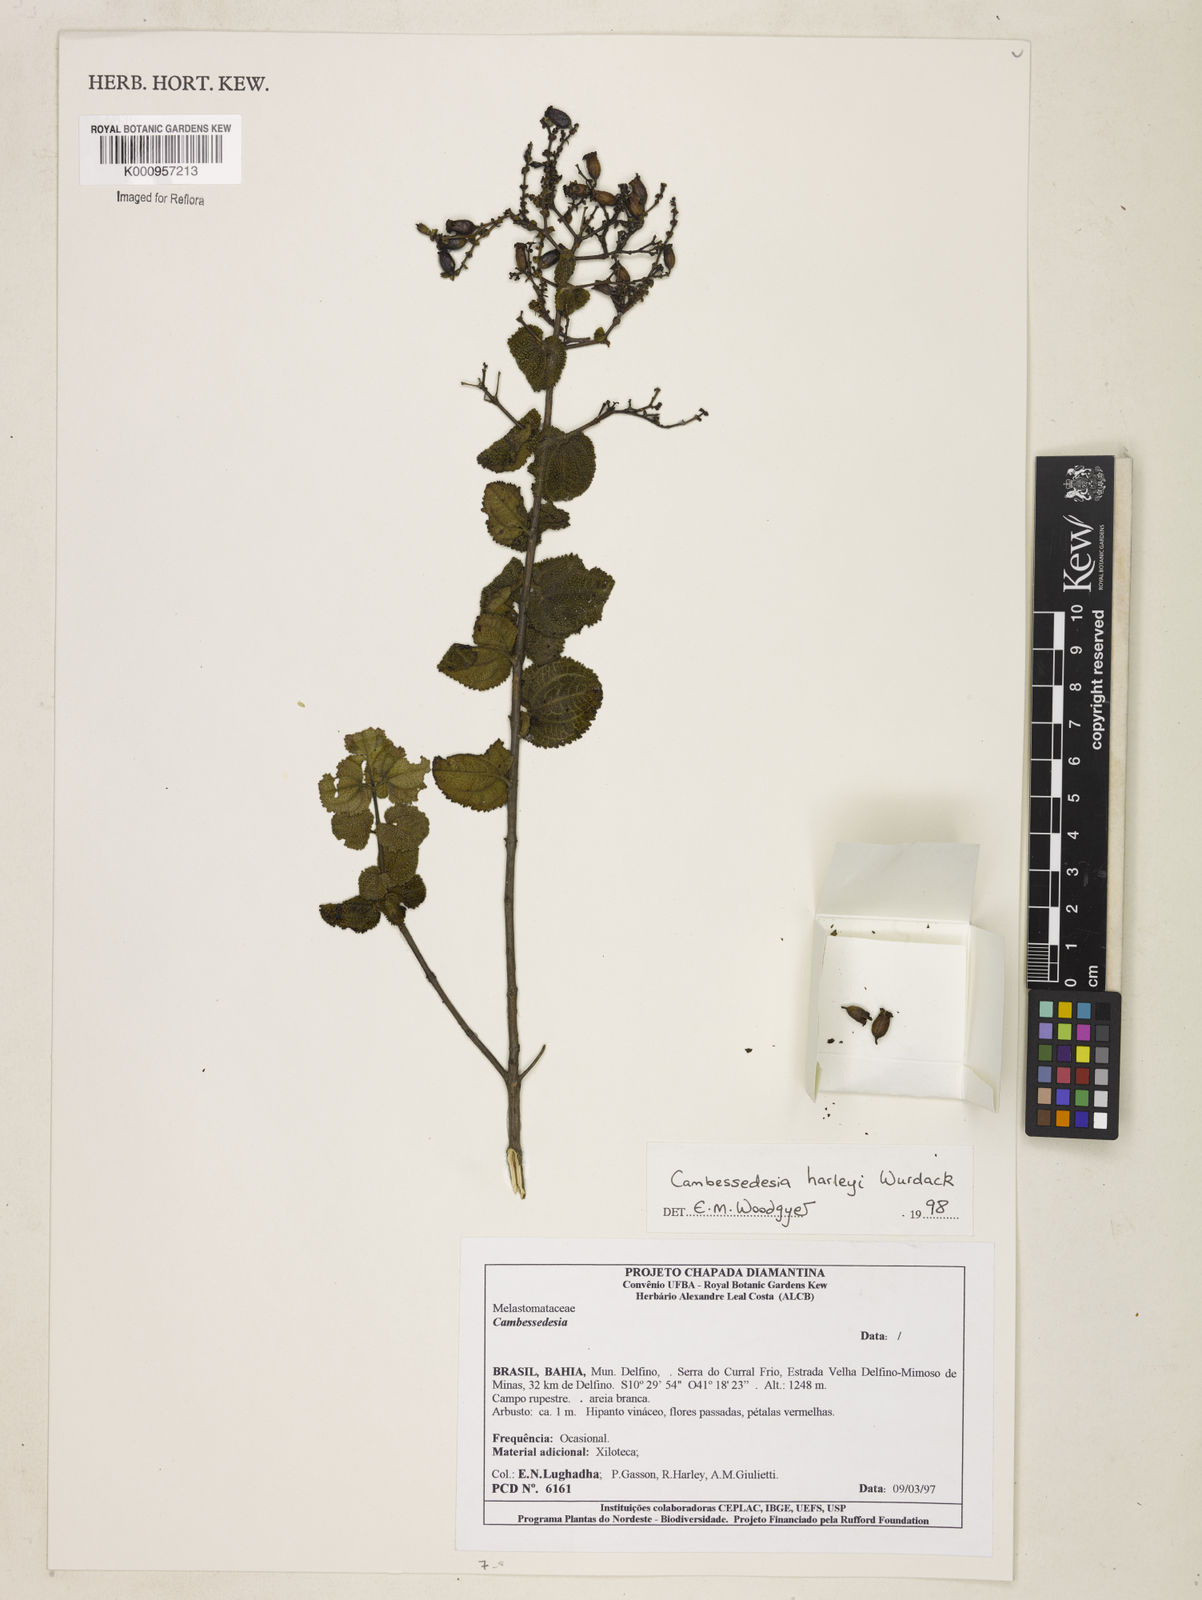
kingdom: Plantae
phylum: Tracheophyta
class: Magnoliopsida
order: Myrtales
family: Melastomataceae
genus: Cambessedesia
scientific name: Cambessedesia harleyi
